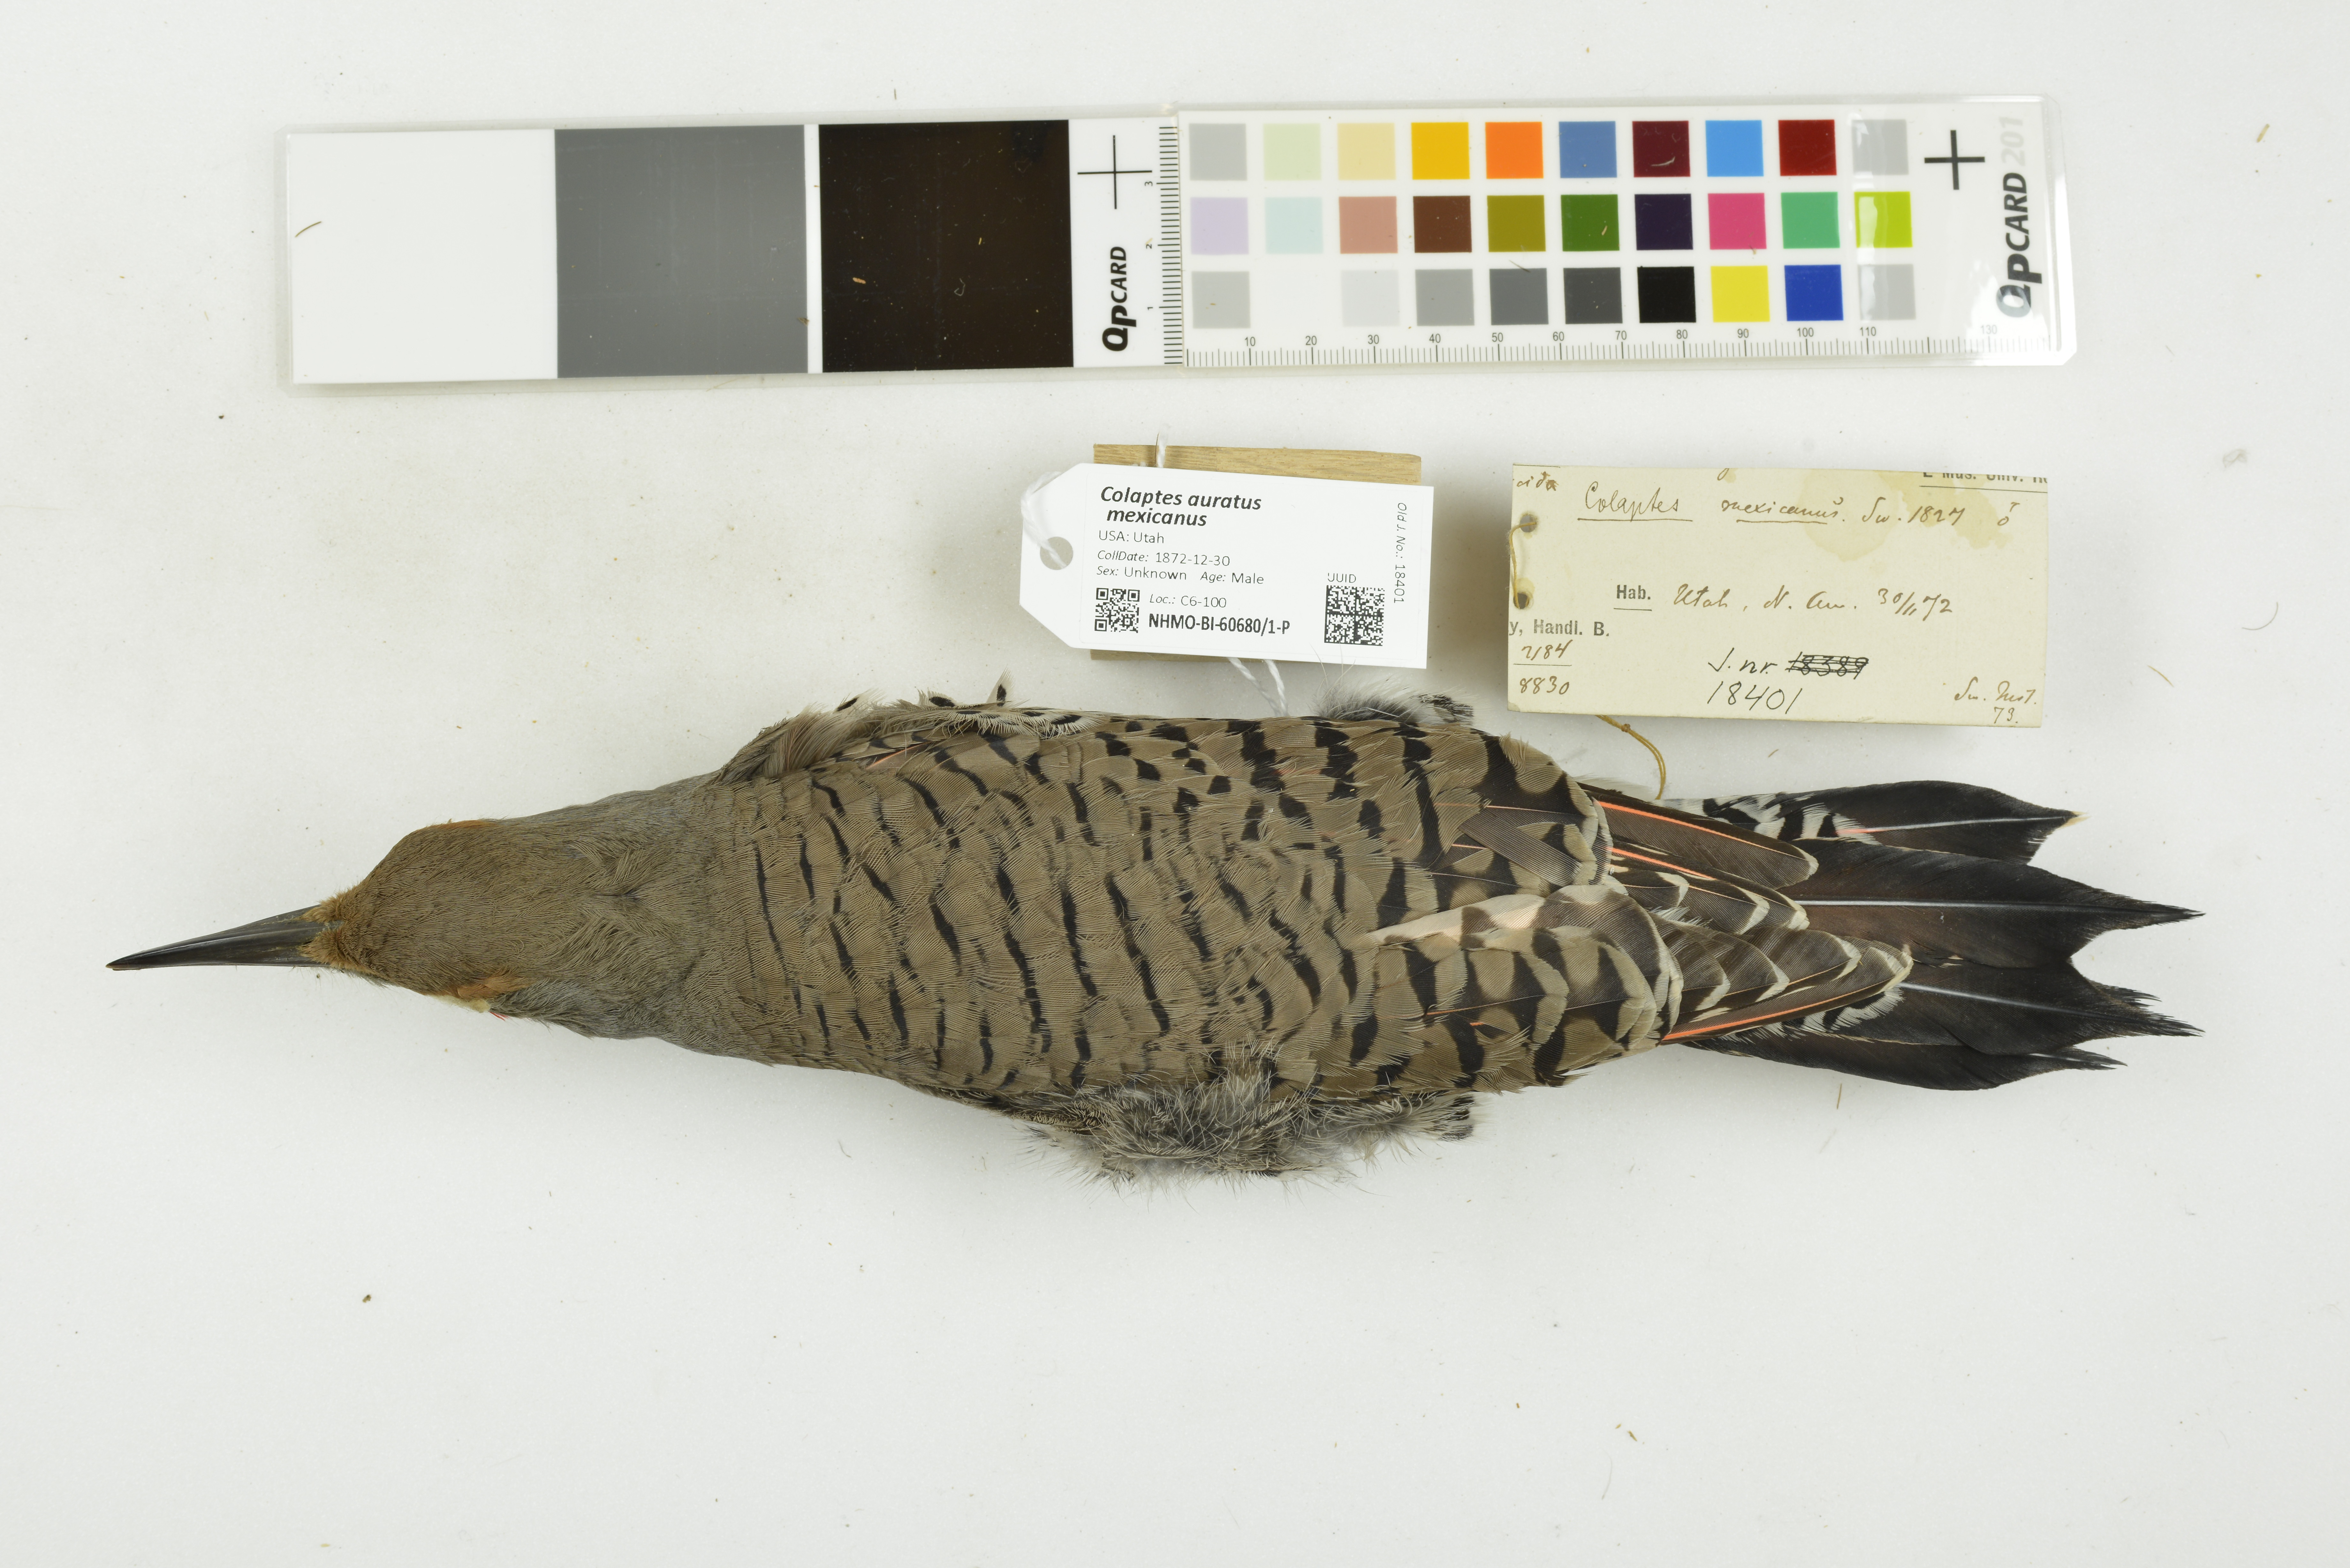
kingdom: Animalia
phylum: Chordata
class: Aves
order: Piciformes
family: Picidae
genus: Colaptes
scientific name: Colaptes auratus
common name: Northern flicker
